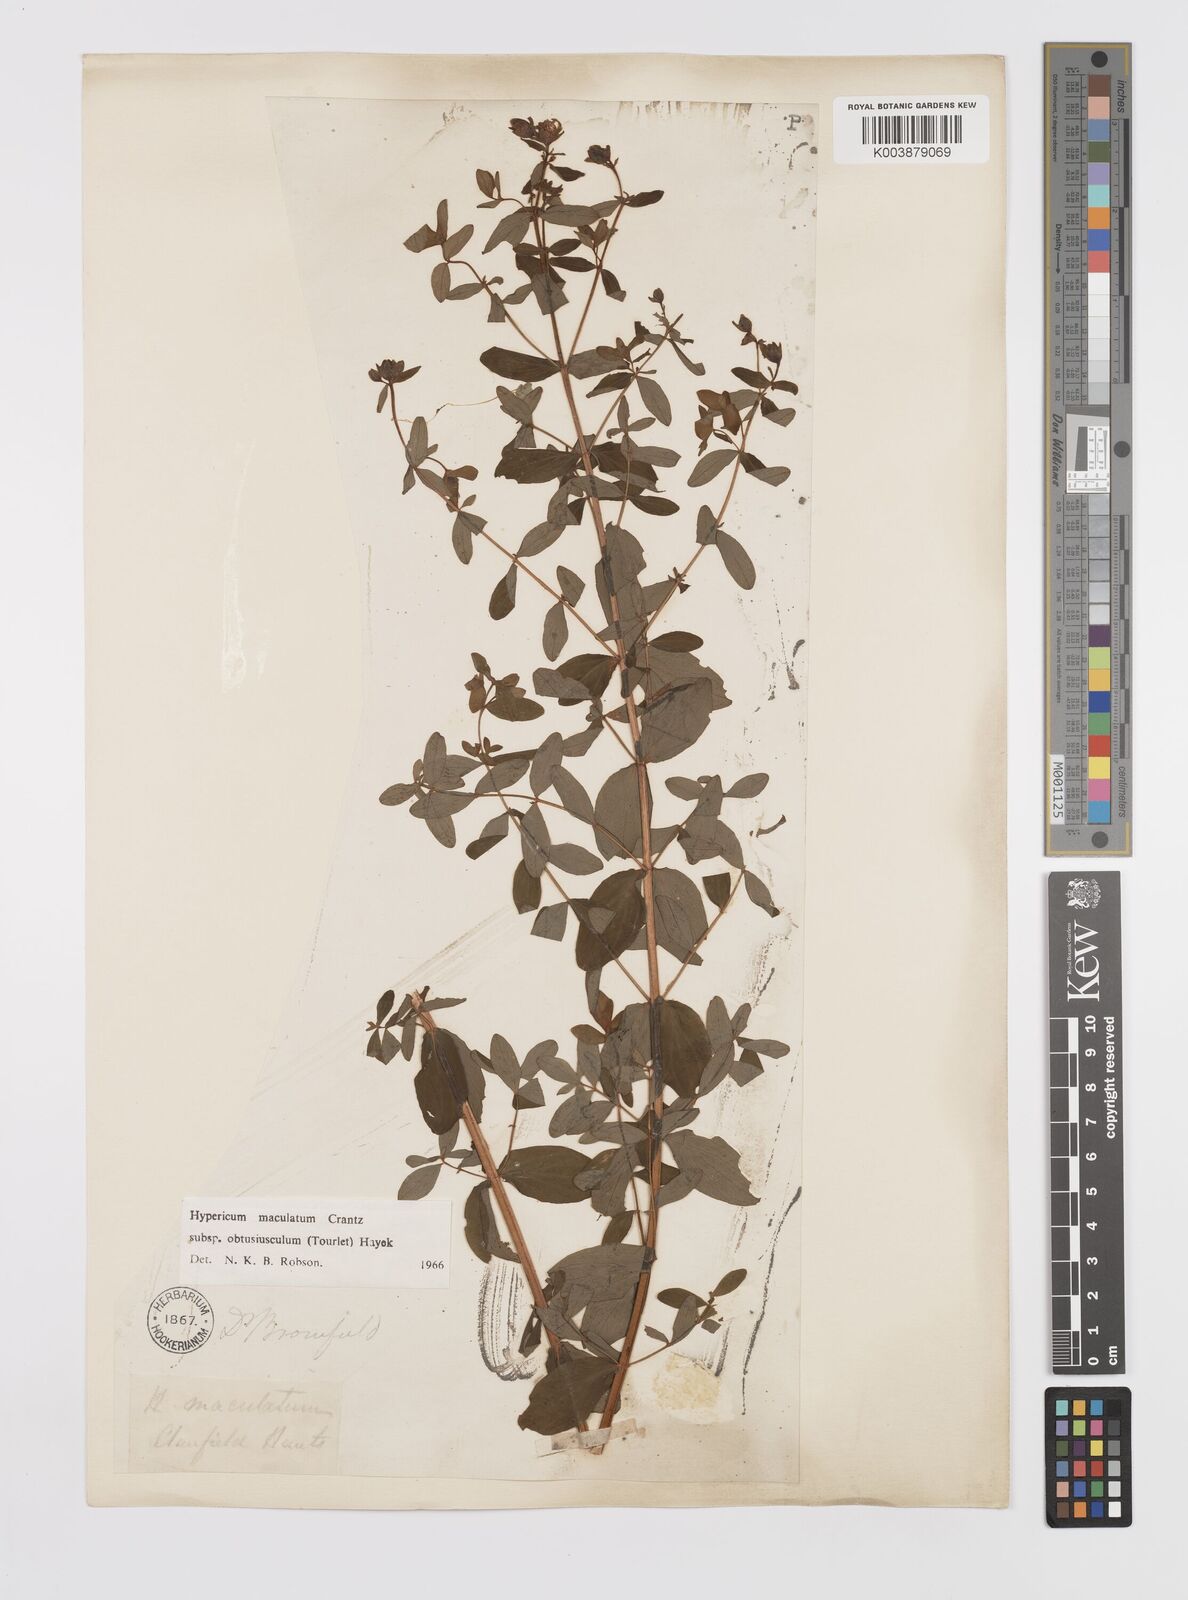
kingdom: Plantae
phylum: Tracheophyta
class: Magnoliopsida
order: Malpighiales
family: Hypericaceae
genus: Hypericum
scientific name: Hypericum dubium
